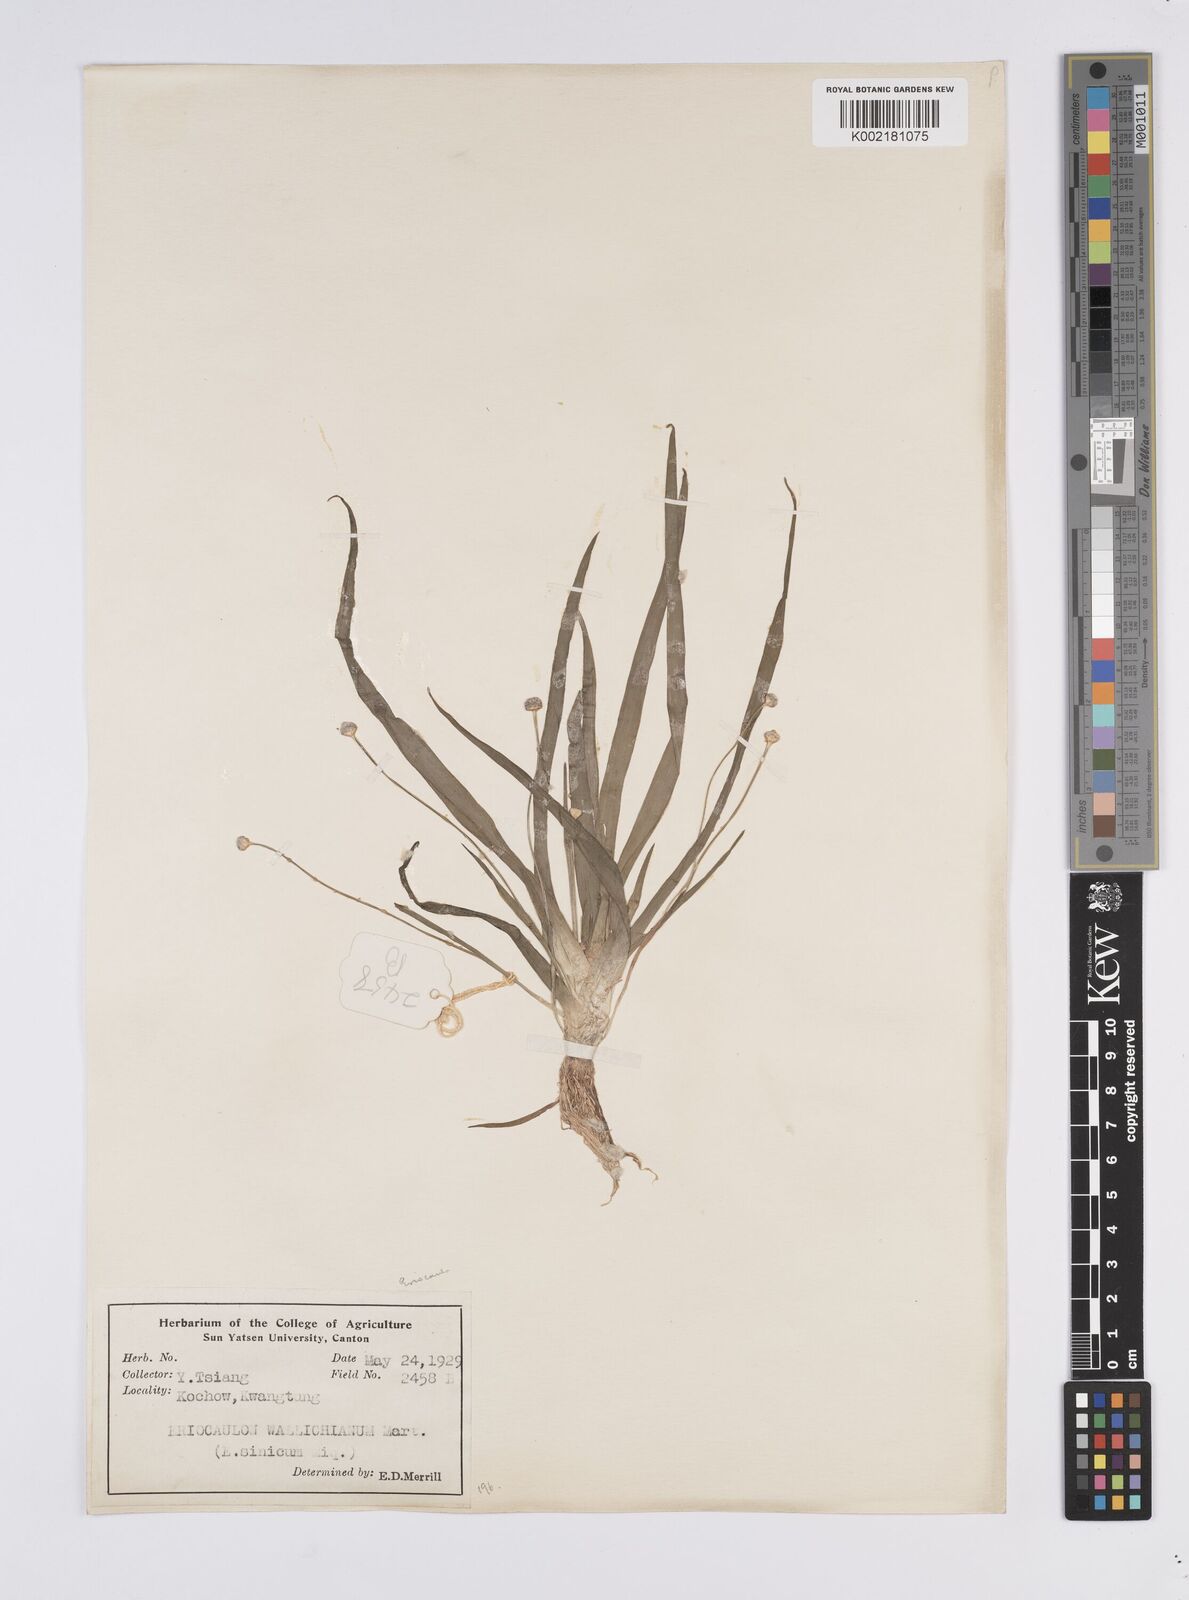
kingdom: Plantae
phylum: Tracheophyta
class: Liliopsida
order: Poales
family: Eriocaulaceae
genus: Eriocaulon
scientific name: Eriocaulon sexangulare
